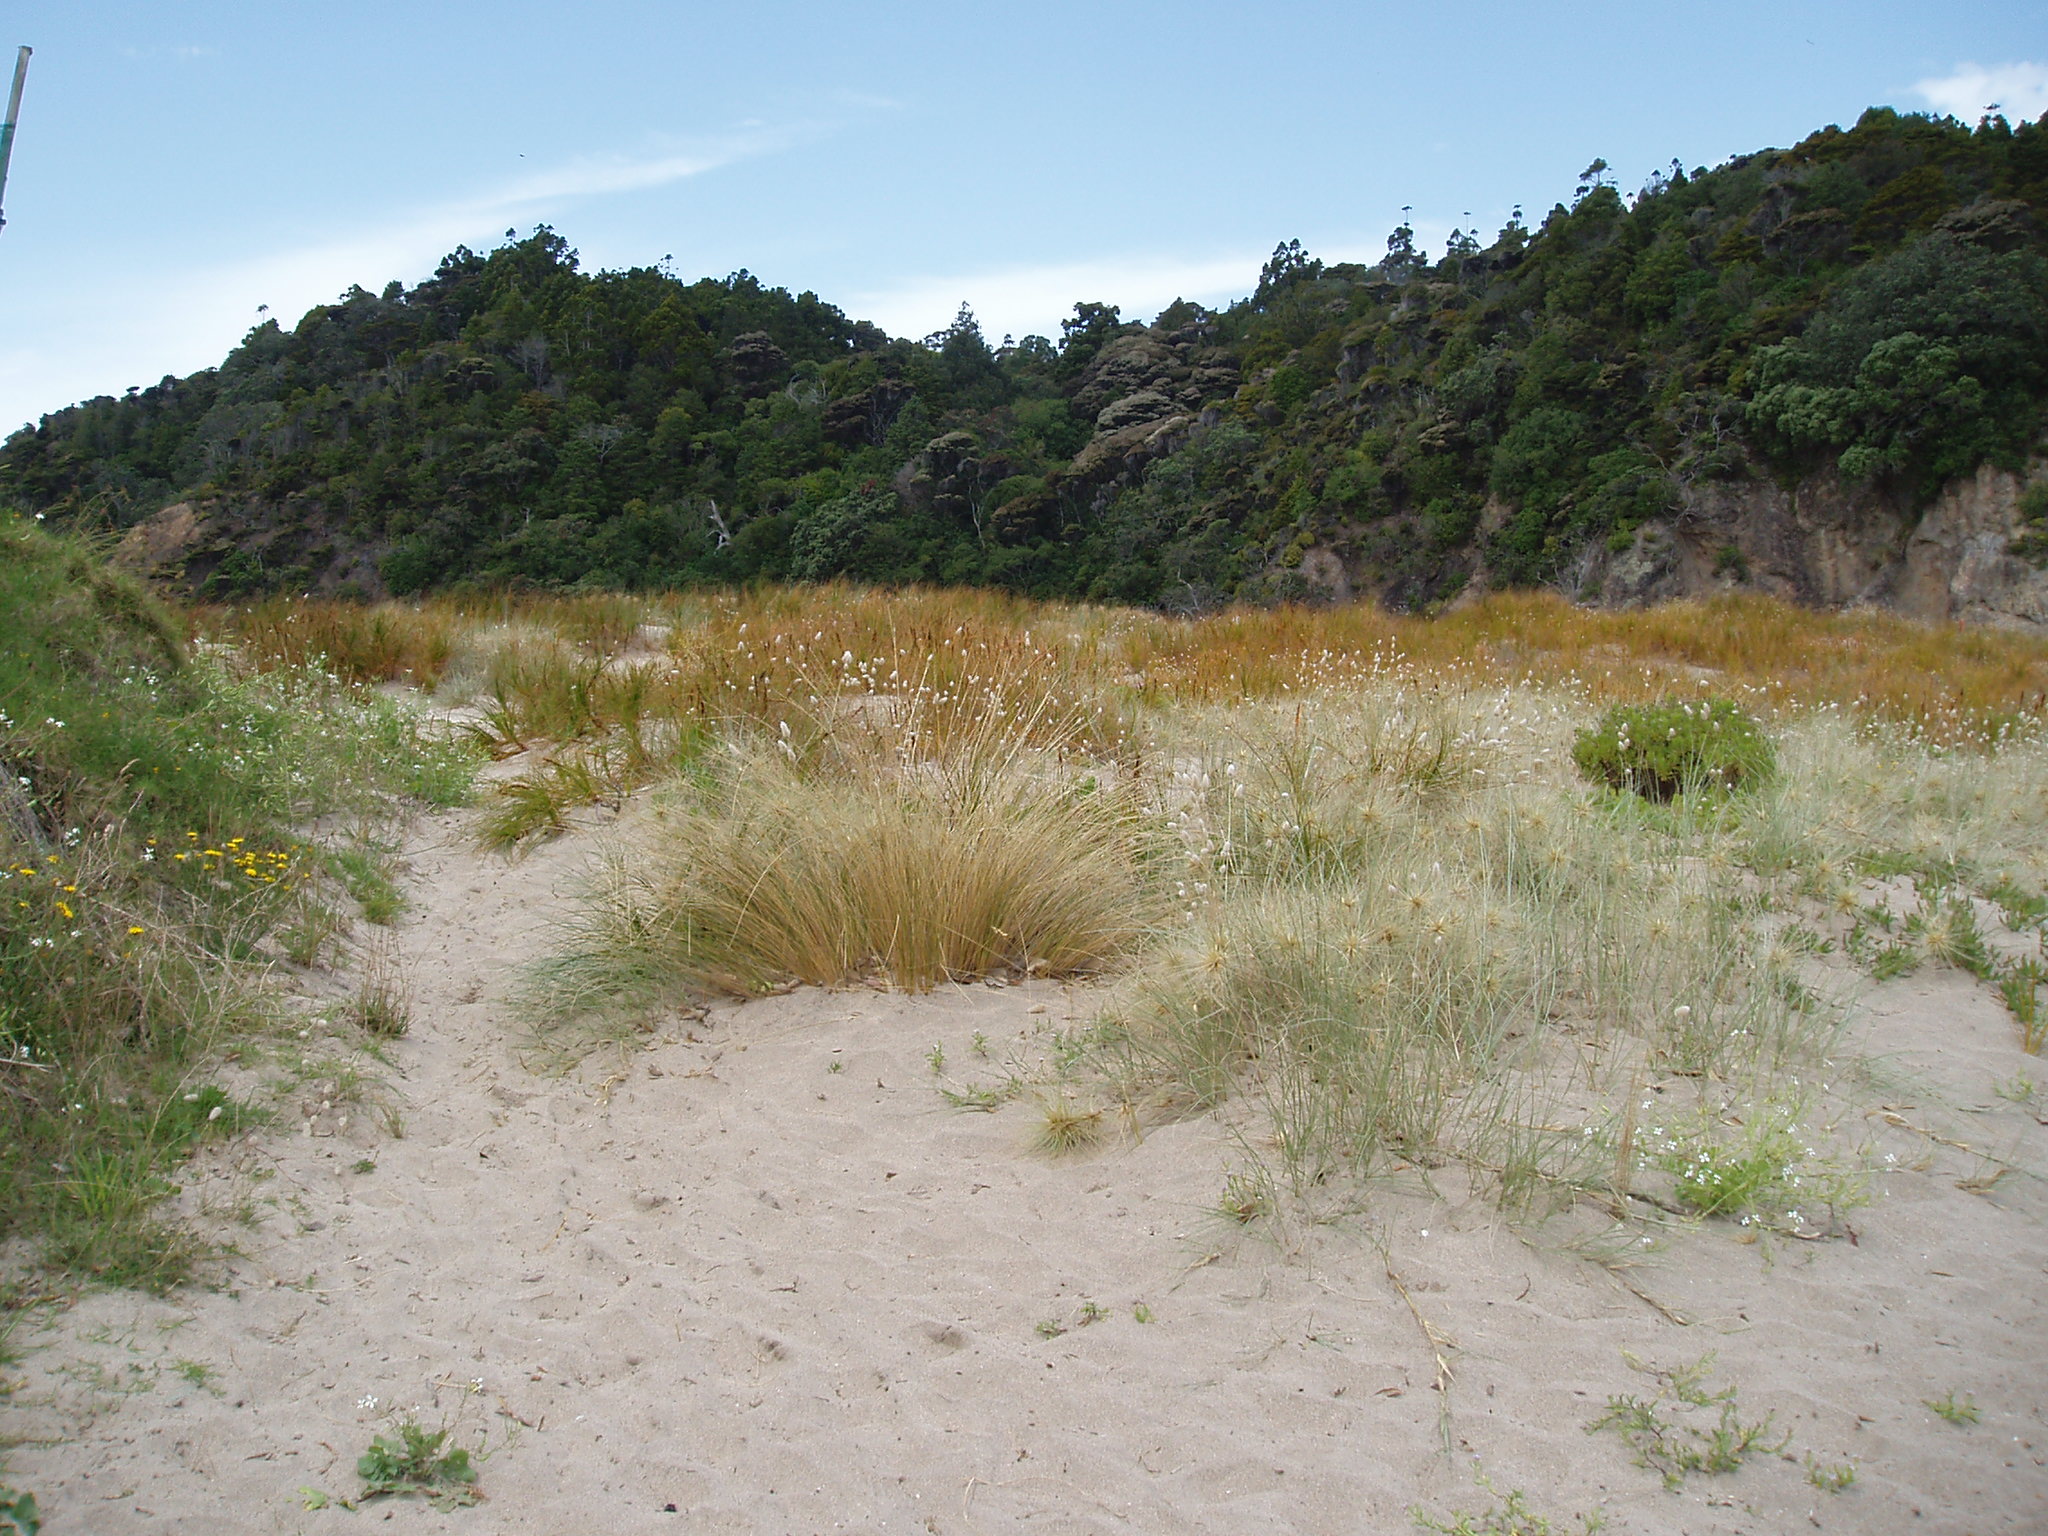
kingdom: Plantae
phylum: Tracheophyta
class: Liliopsida
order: Poales
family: Poaceae
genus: Poa
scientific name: Poa triodioides
